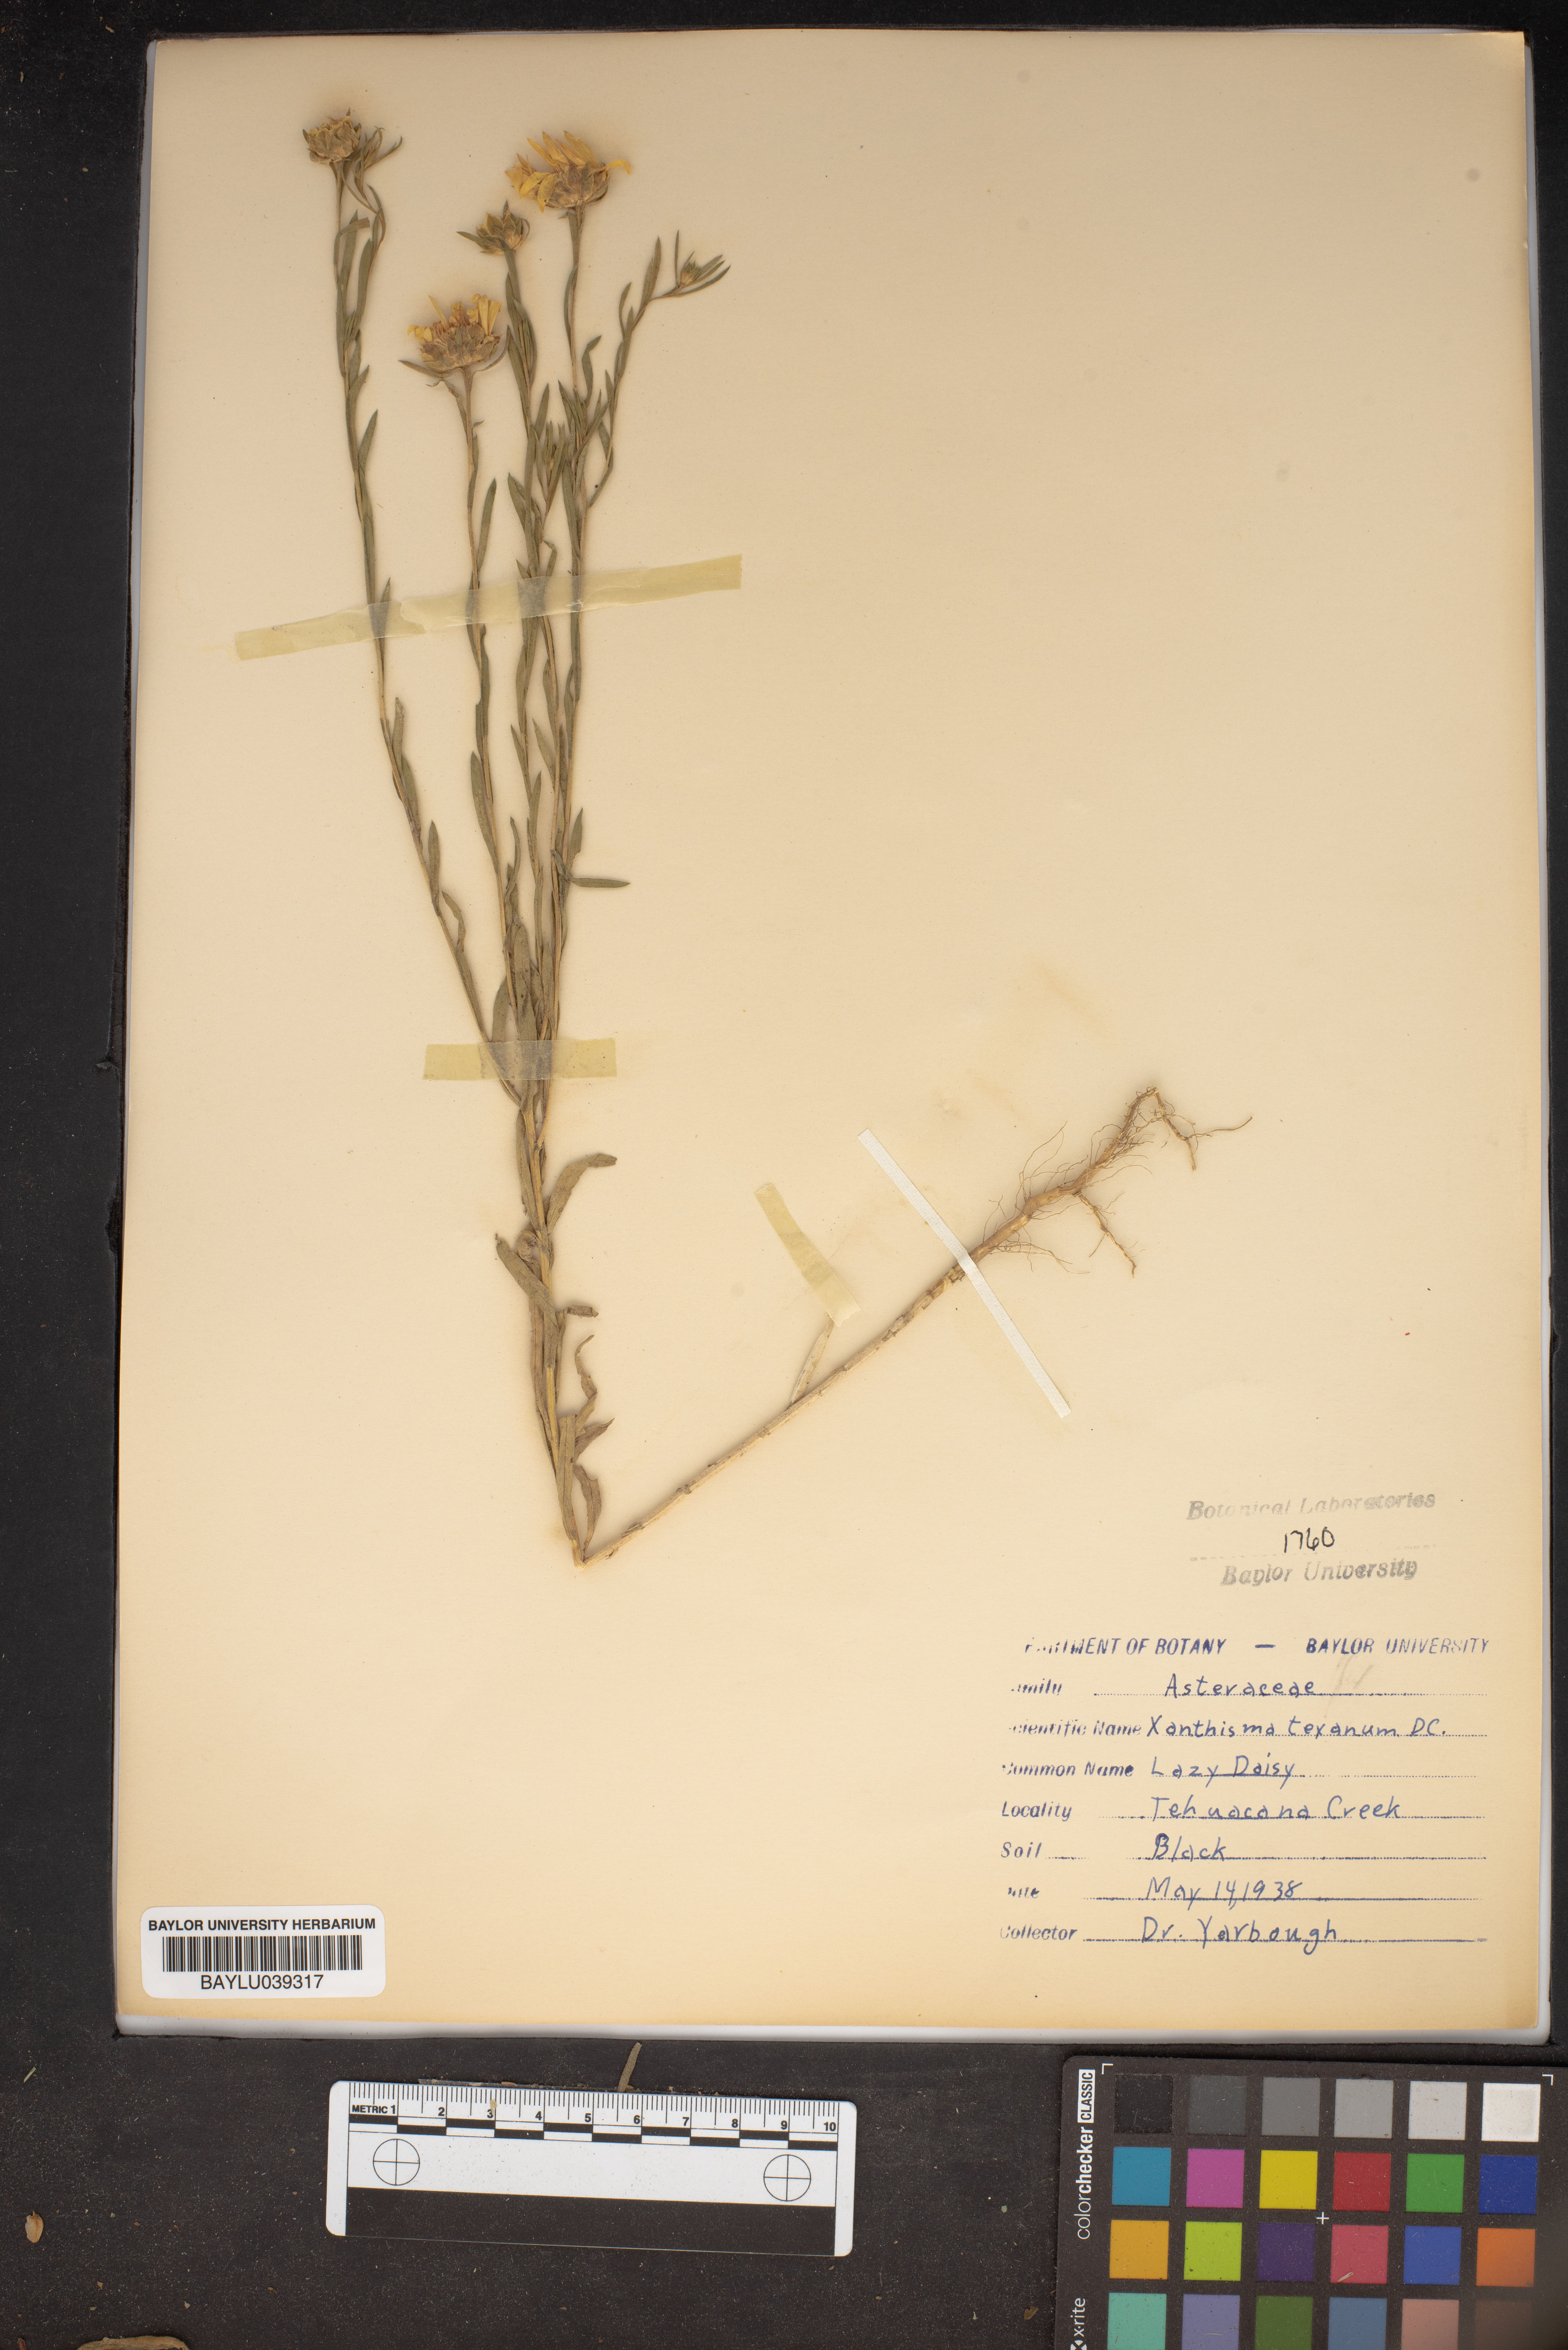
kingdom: Plantae
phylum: Tracheophyta
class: Magnoliopsida
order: Asterales
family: Asteraceae
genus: Xanthisma
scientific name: Xanthisma texanum
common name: Texas sleepy daisy
